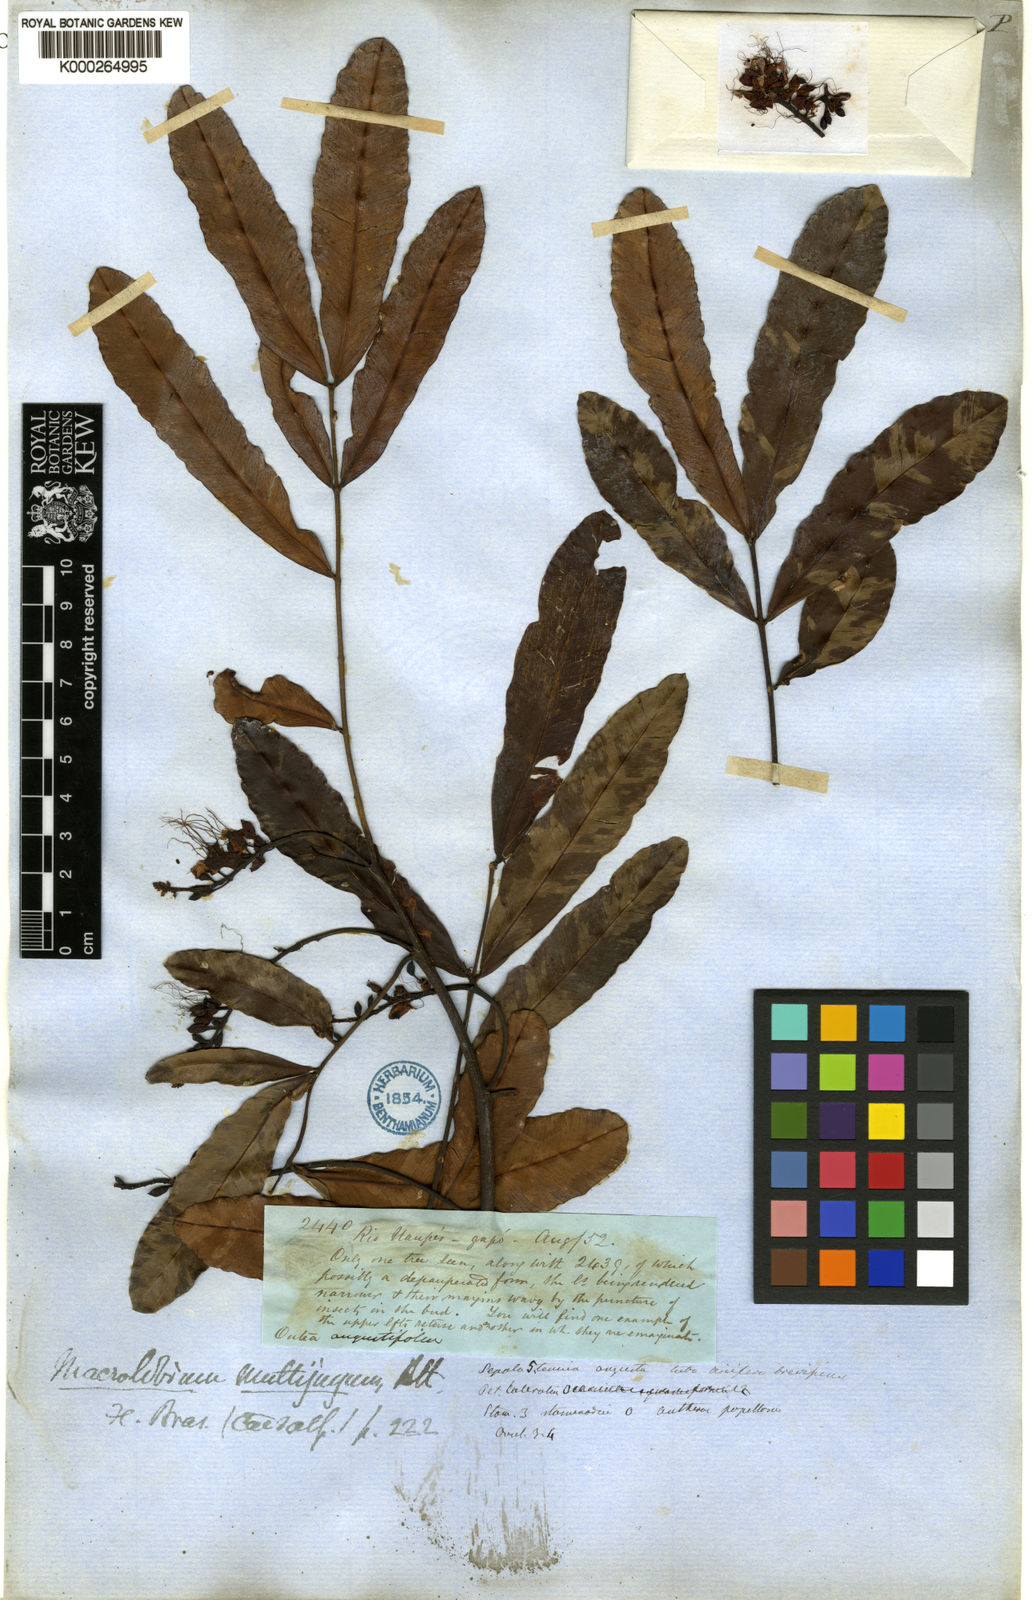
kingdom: Plantae
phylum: Tracheophyta
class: Magnoliopsida
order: Fabales
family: Fabaceae
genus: Macrolobium
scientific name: Macrolobium multijugum
